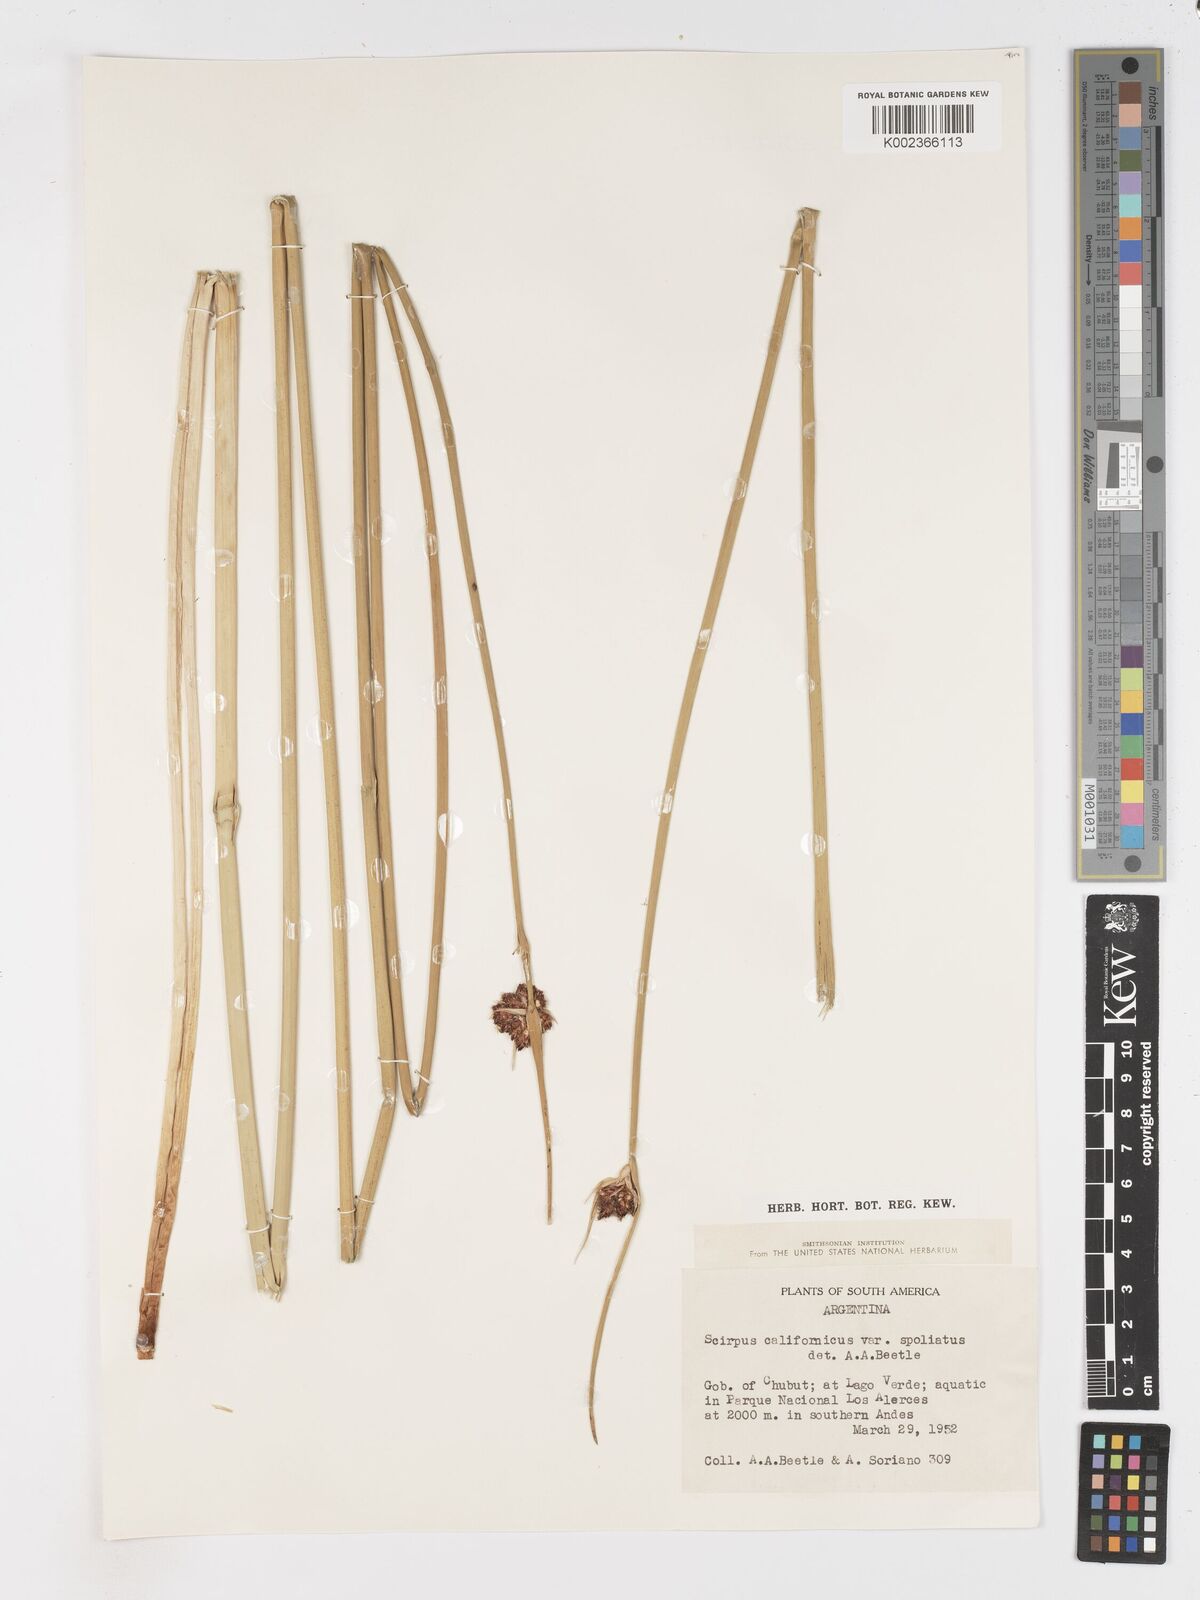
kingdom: Plantae
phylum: Tracheophyta
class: Liliopsida
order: Poales
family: Cyperaceae
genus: Schoenoplectus
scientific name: Schoenoplectus californicus
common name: California bulrush
